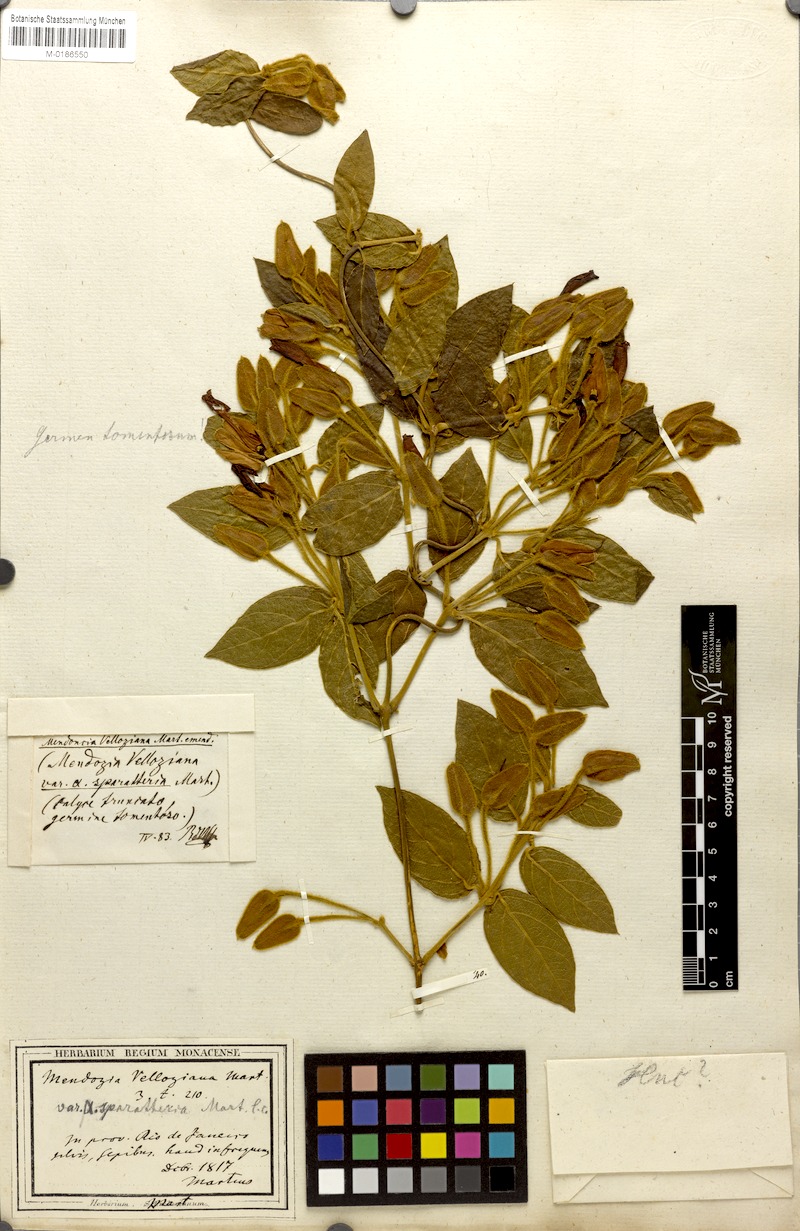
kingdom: Plantae
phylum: Tracheophyta
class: Magnoliopsida
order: Lamiales
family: Acanthaceae
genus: Mendoncia
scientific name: Mendoncia velloziana
